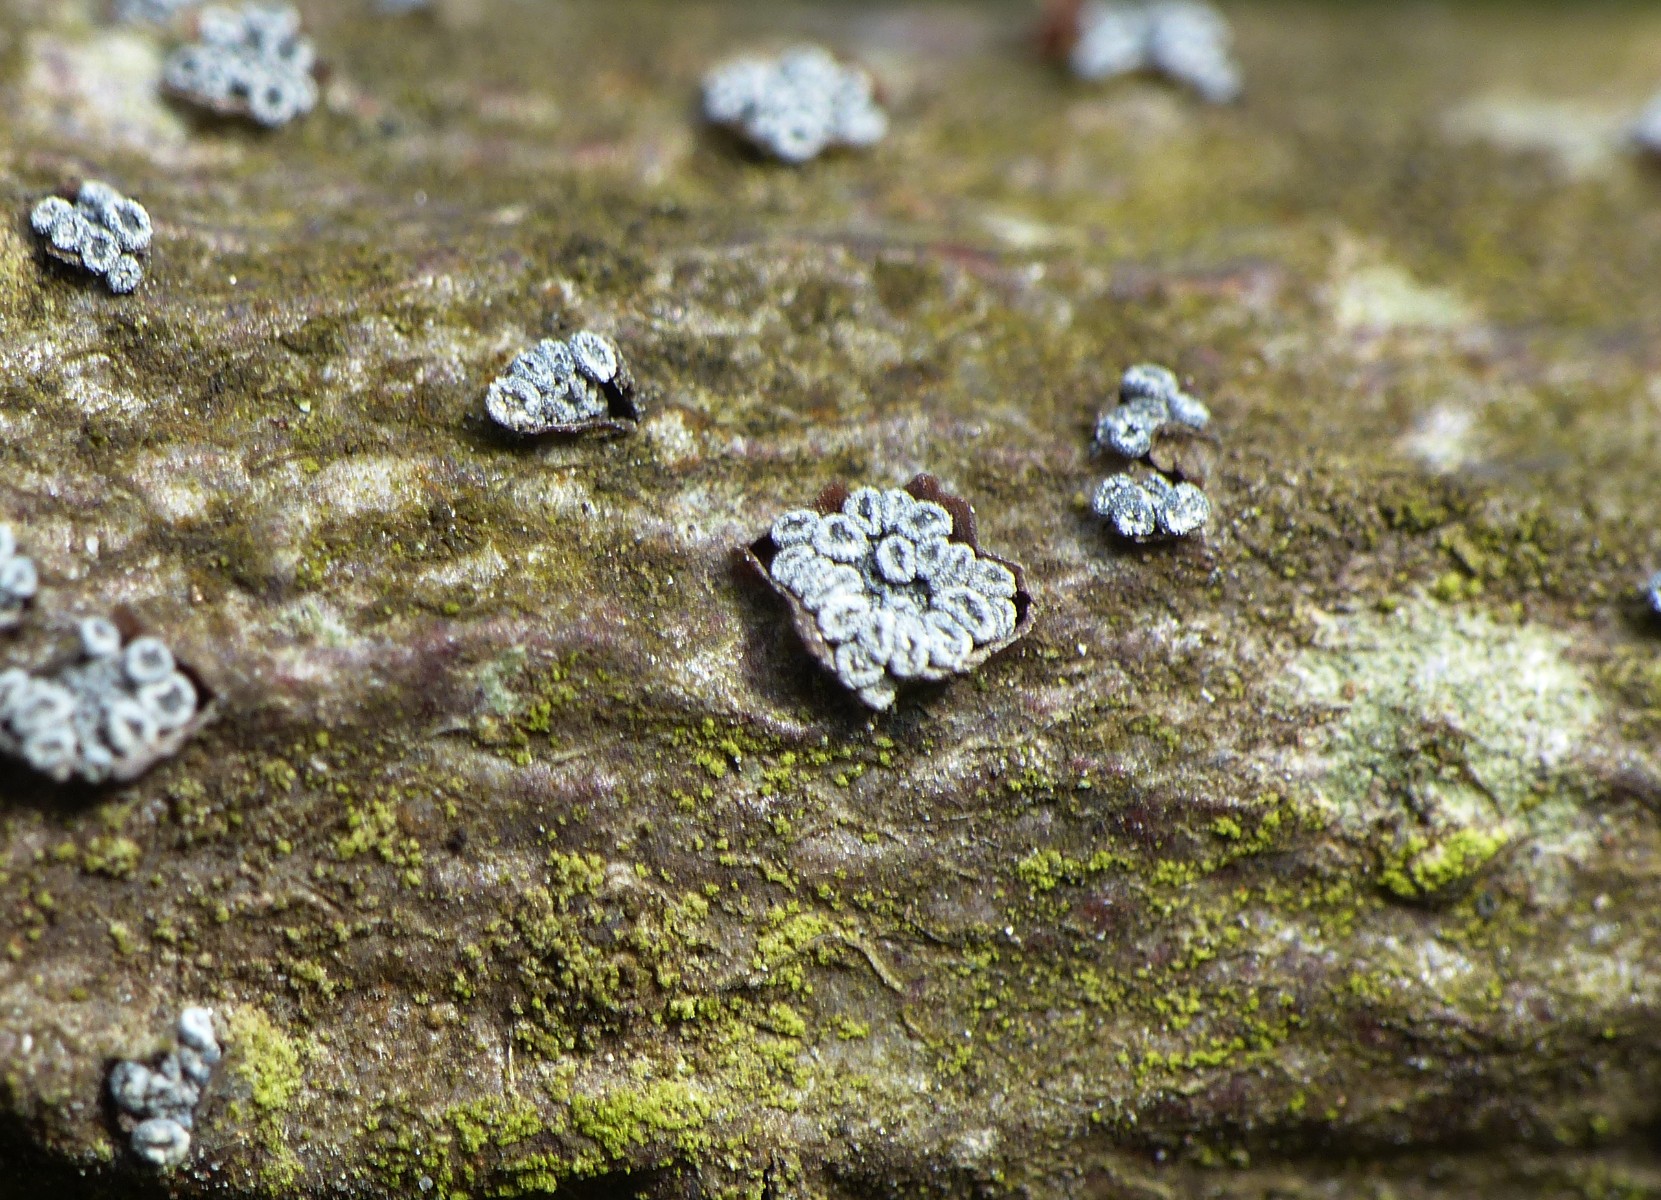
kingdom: Fungi
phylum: Ascomycota
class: Leotiomycetes
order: Leotiales
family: Tympanidaceae
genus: Tympanis
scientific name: Tympanis alnea
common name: almindelig knippeskive
